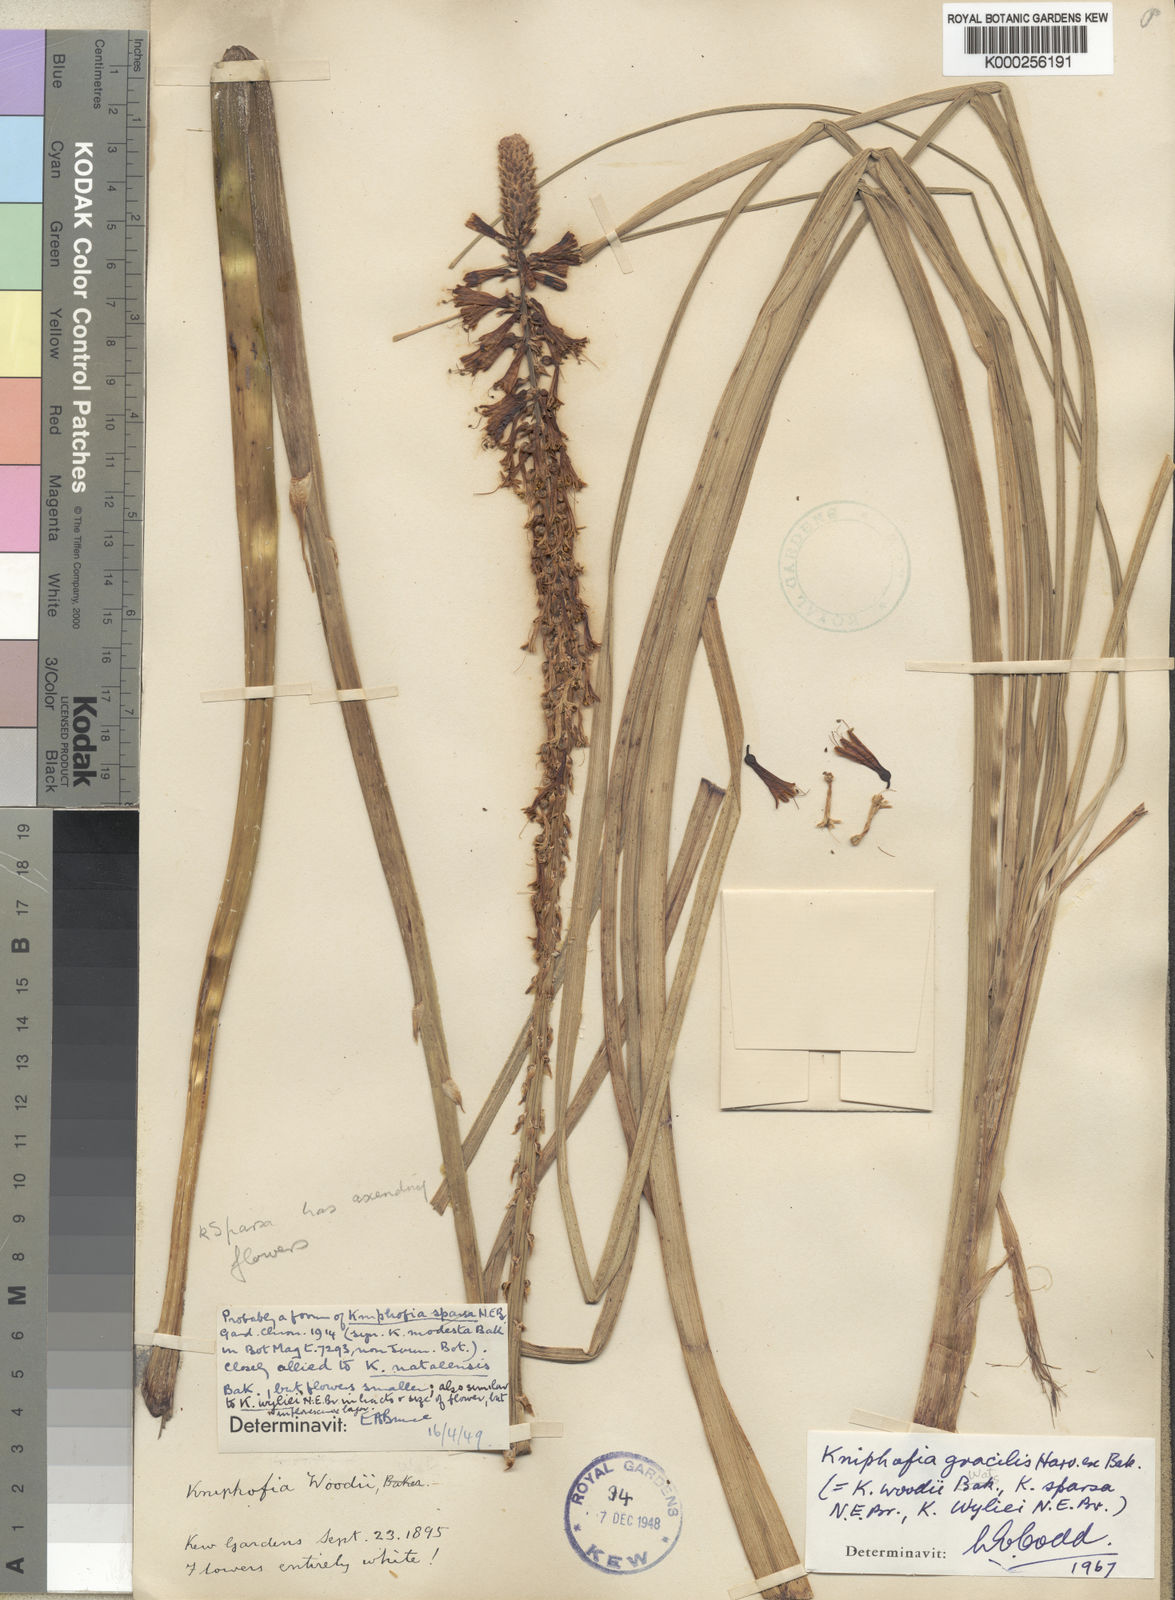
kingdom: Plantae
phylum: Tracheophyta
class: Liliopsida
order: Asparagales
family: Asphodelaceae
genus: Kniphofia
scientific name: Kniphofia gracilis
